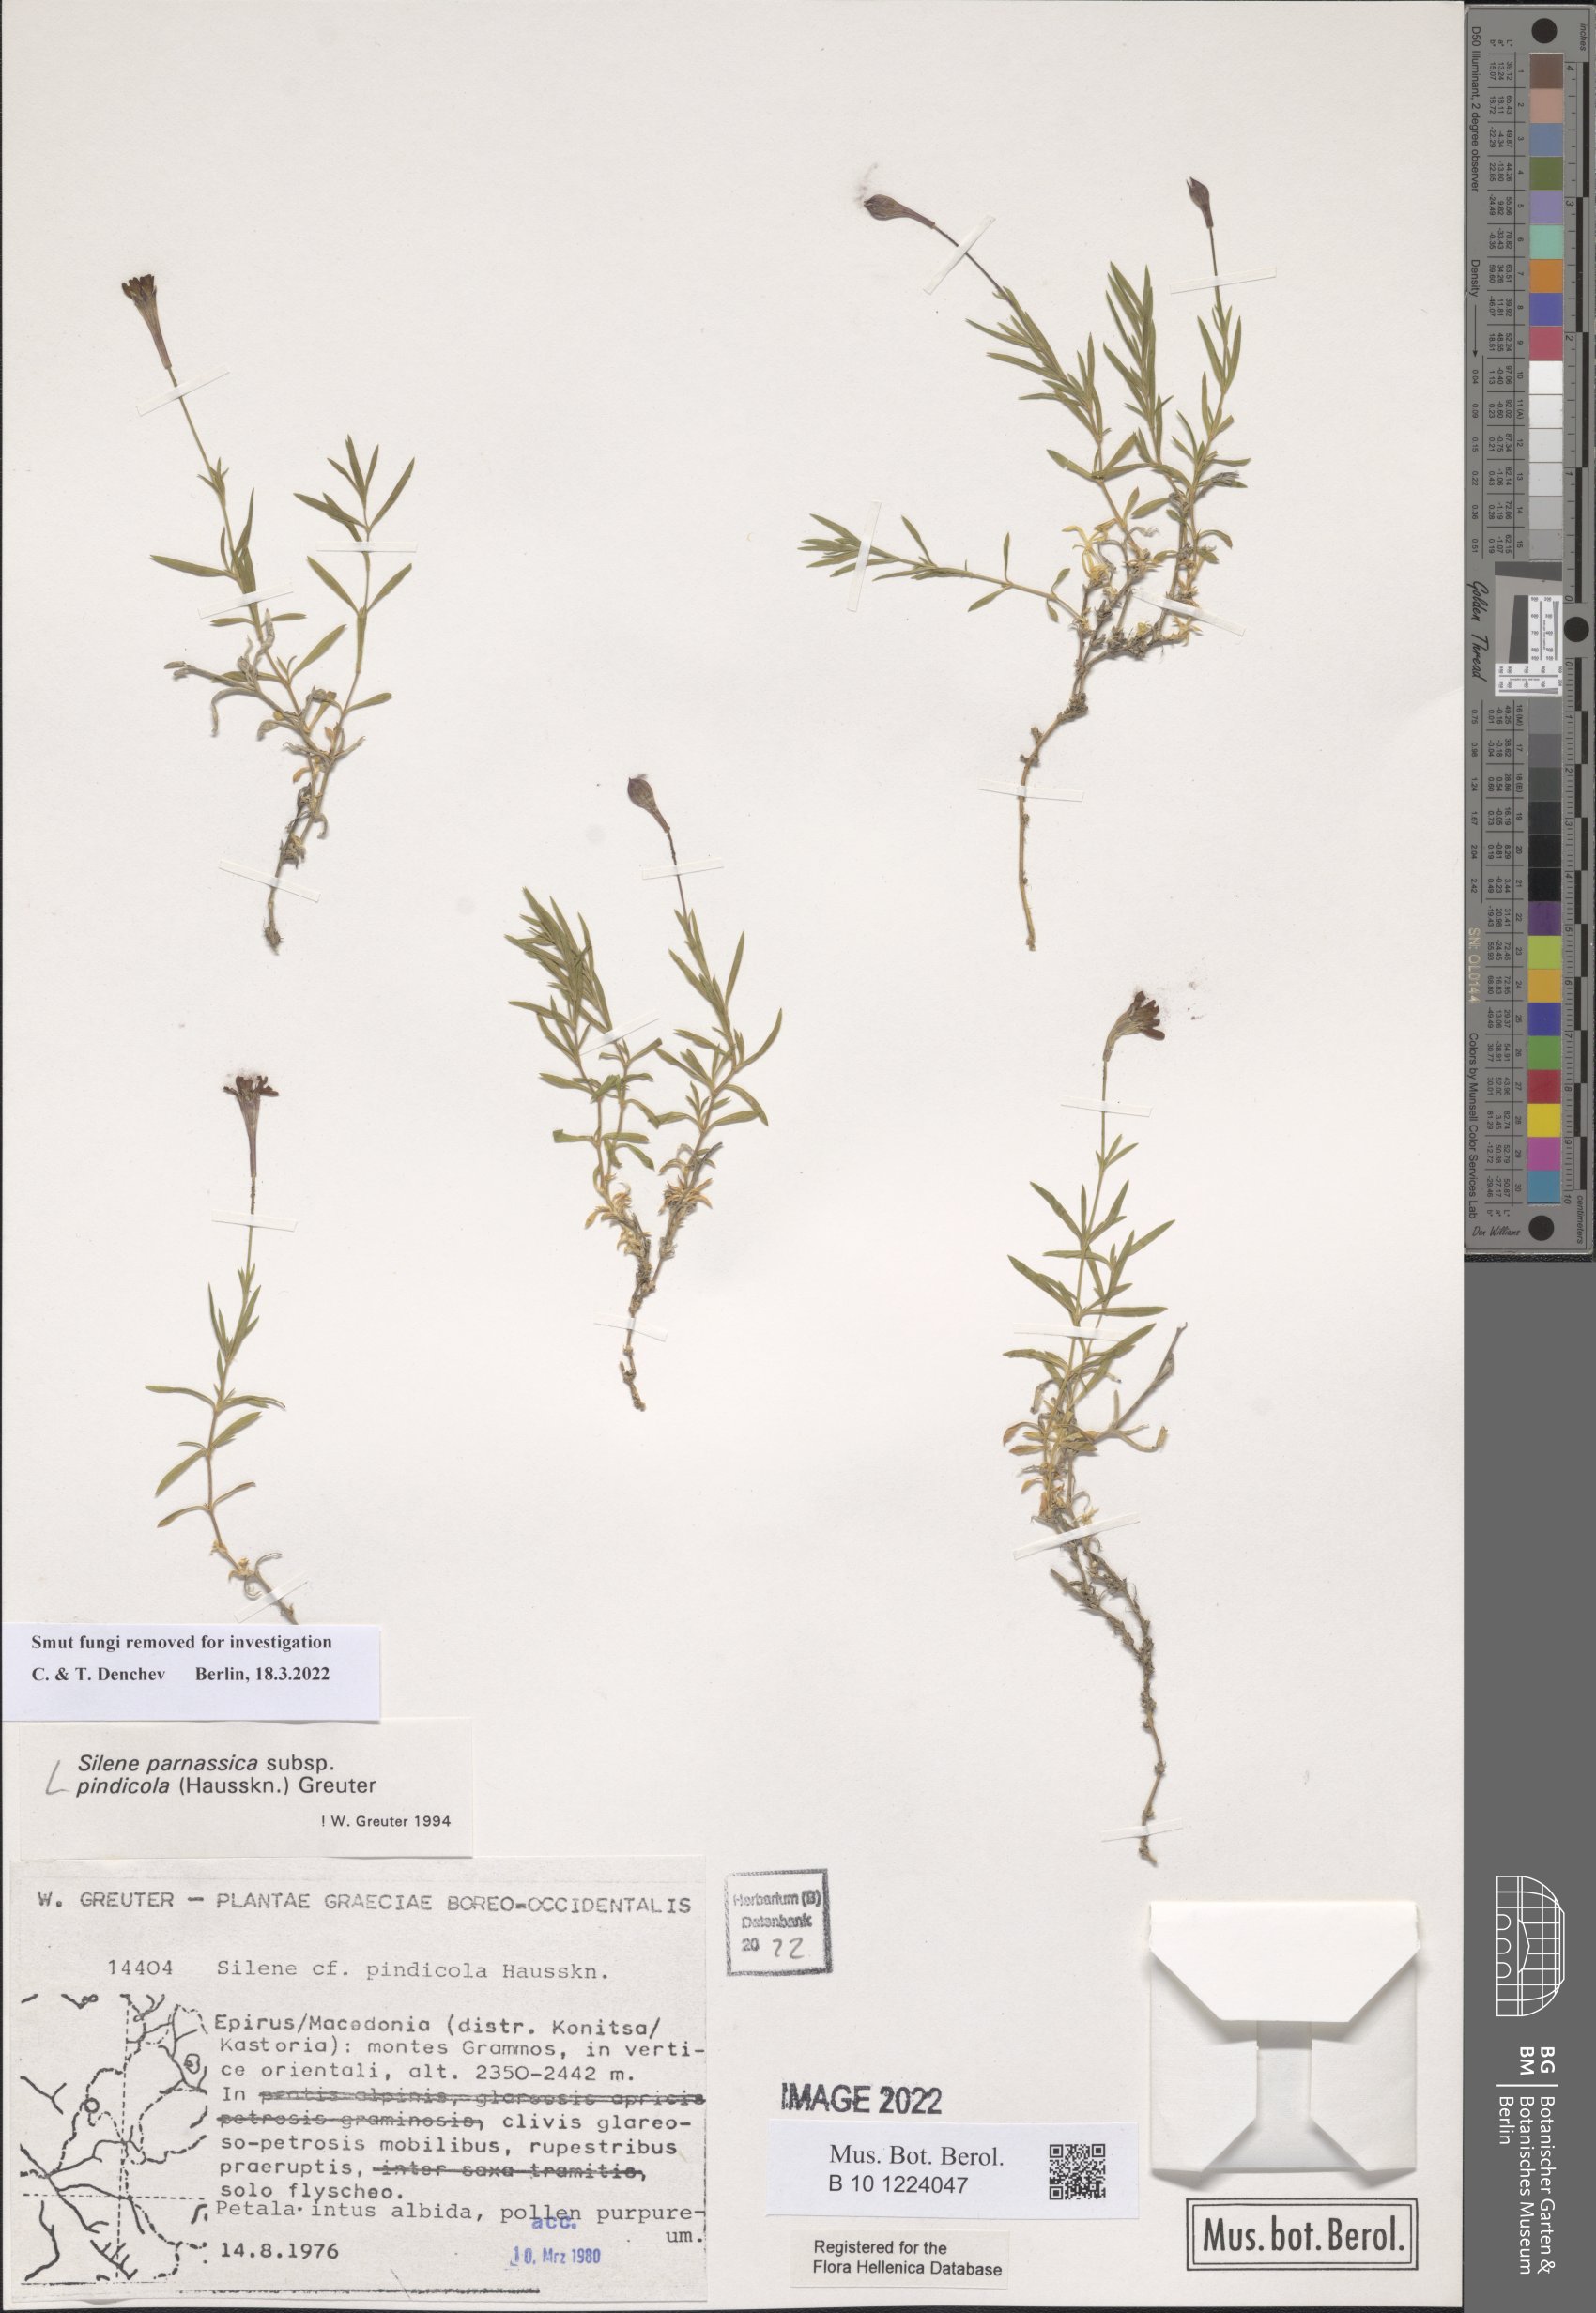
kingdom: Plantae
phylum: Tracheophyta
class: Magnoliopsida
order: Caryophyllales
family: Caryophyllaceae
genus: Silene
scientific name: Silene parnassica
